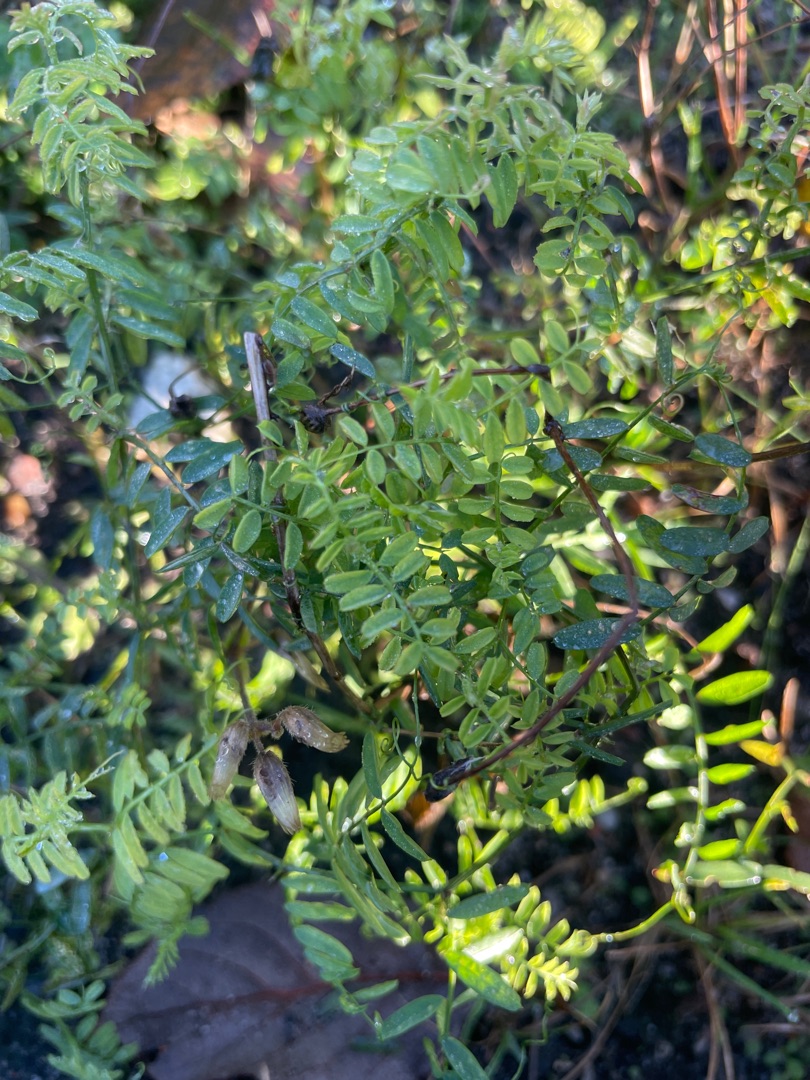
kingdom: Plantae
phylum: Tracheophyta
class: Magnoliopsida
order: Fabales
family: Fabaceae
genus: Vicia
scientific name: Vicia
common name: Vikkeslægten
